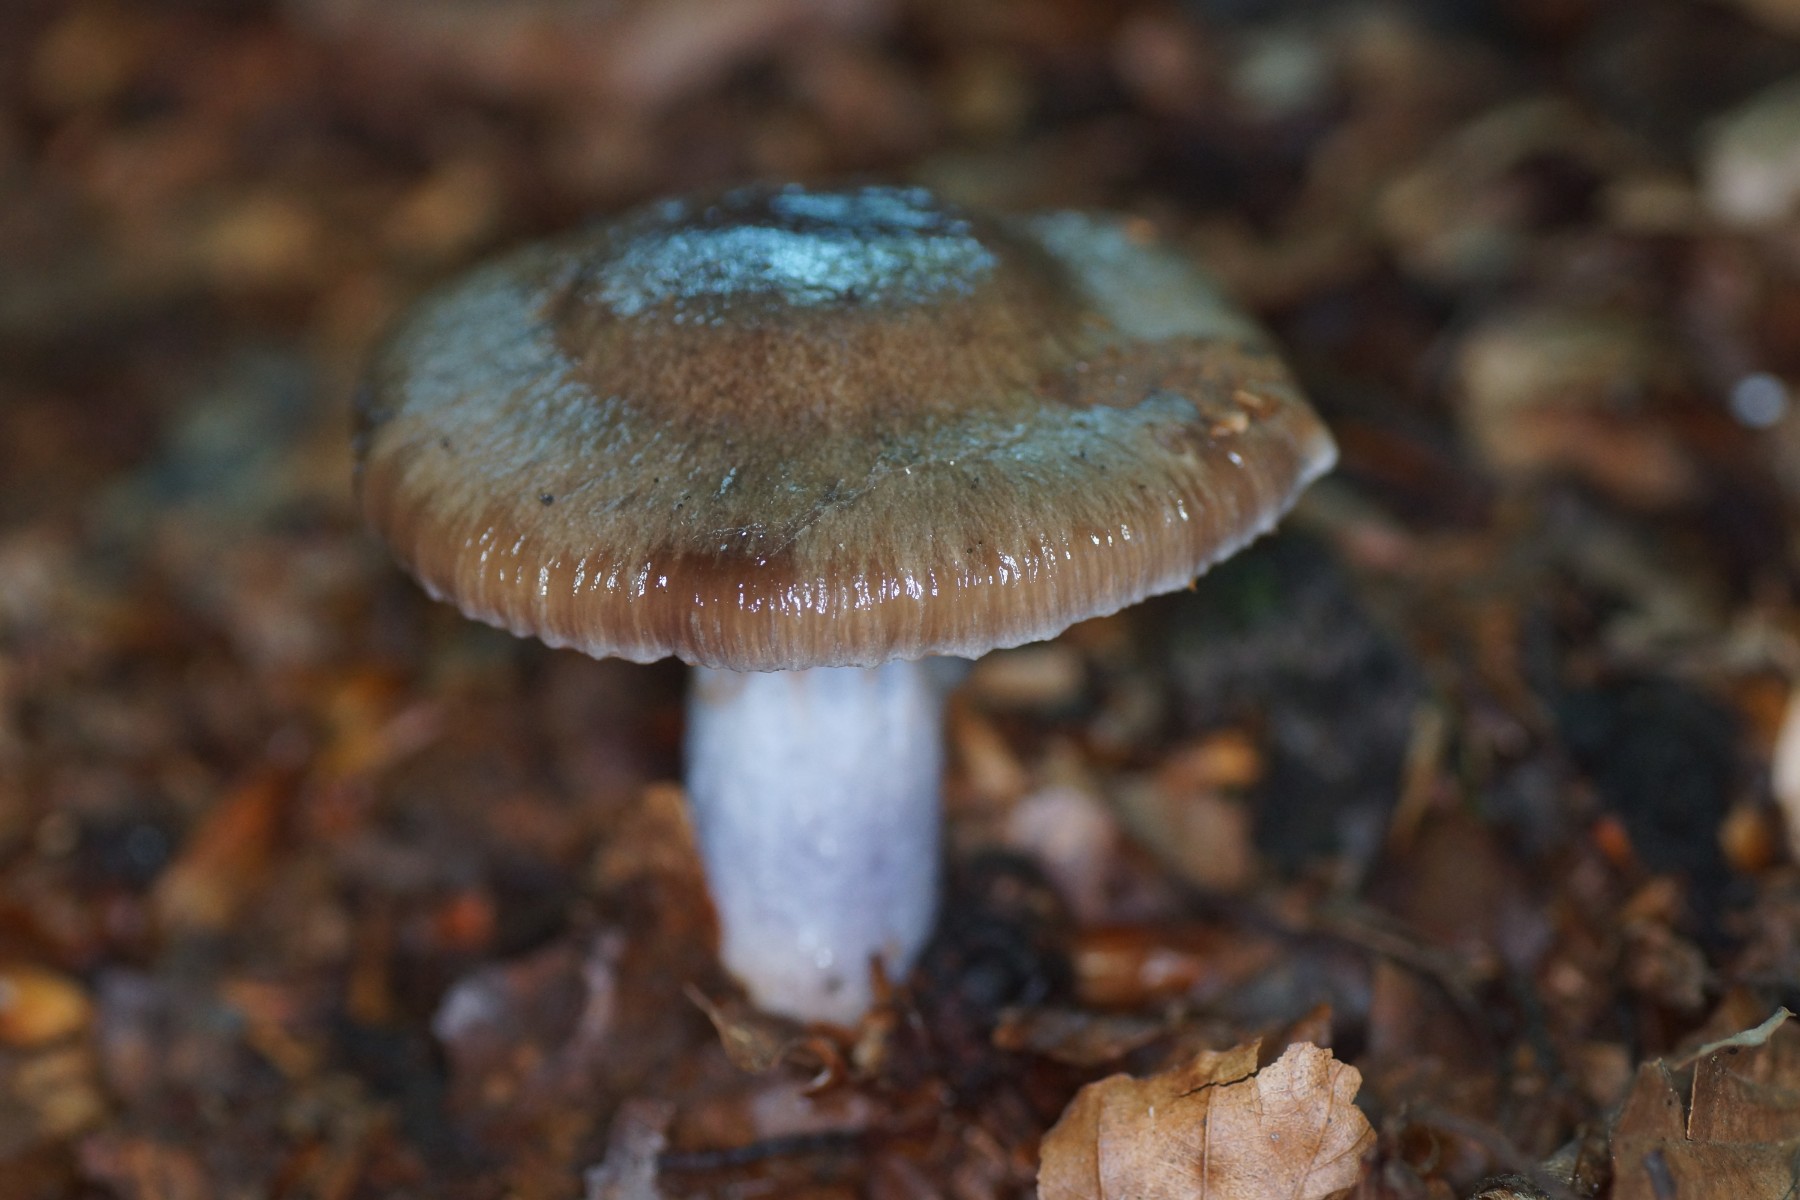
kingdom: Fungi
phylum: Basidiomycota
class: Agaricomycetes
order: Agaricales
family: Cortinariaceae
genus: Cortinarius
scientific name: Cortinarius elatior
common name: høj slørhat
